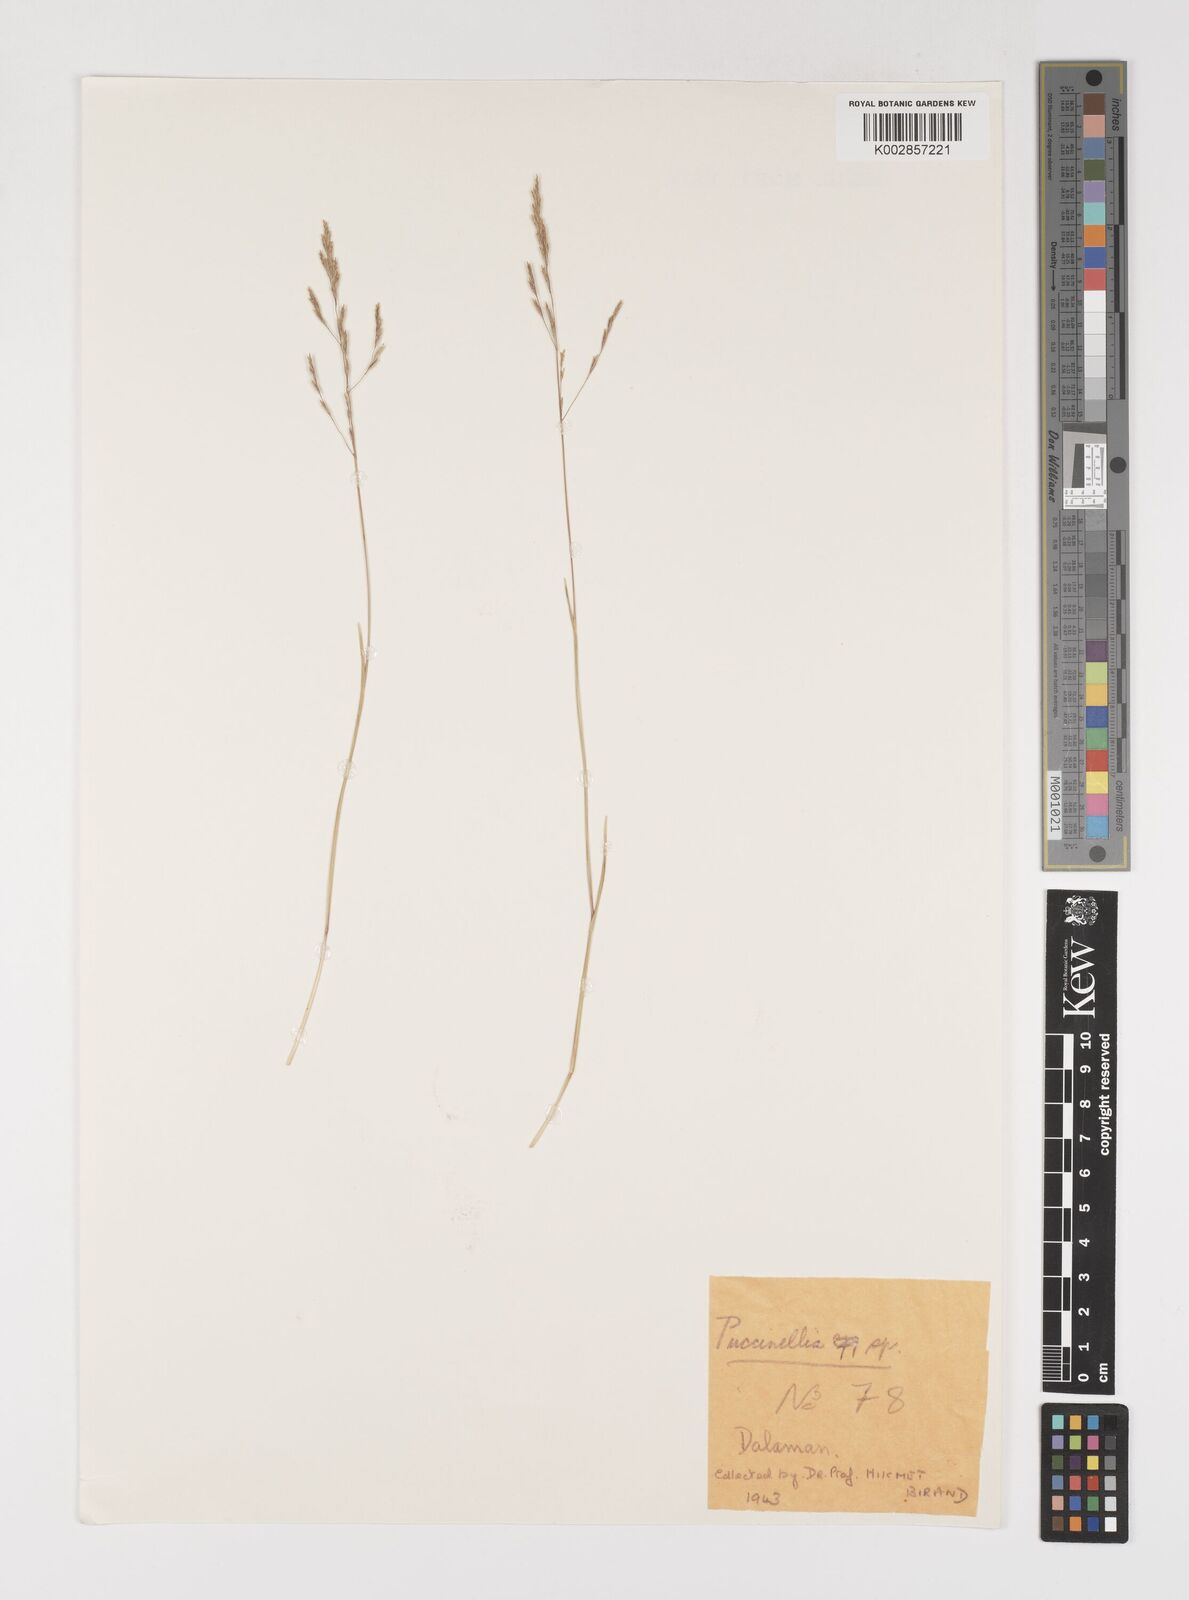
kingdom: Plantae
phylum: Tracheophyta
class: Liliopsida
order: Poales
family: Poaceae
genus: Puccinellia
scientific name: Puccinellia
